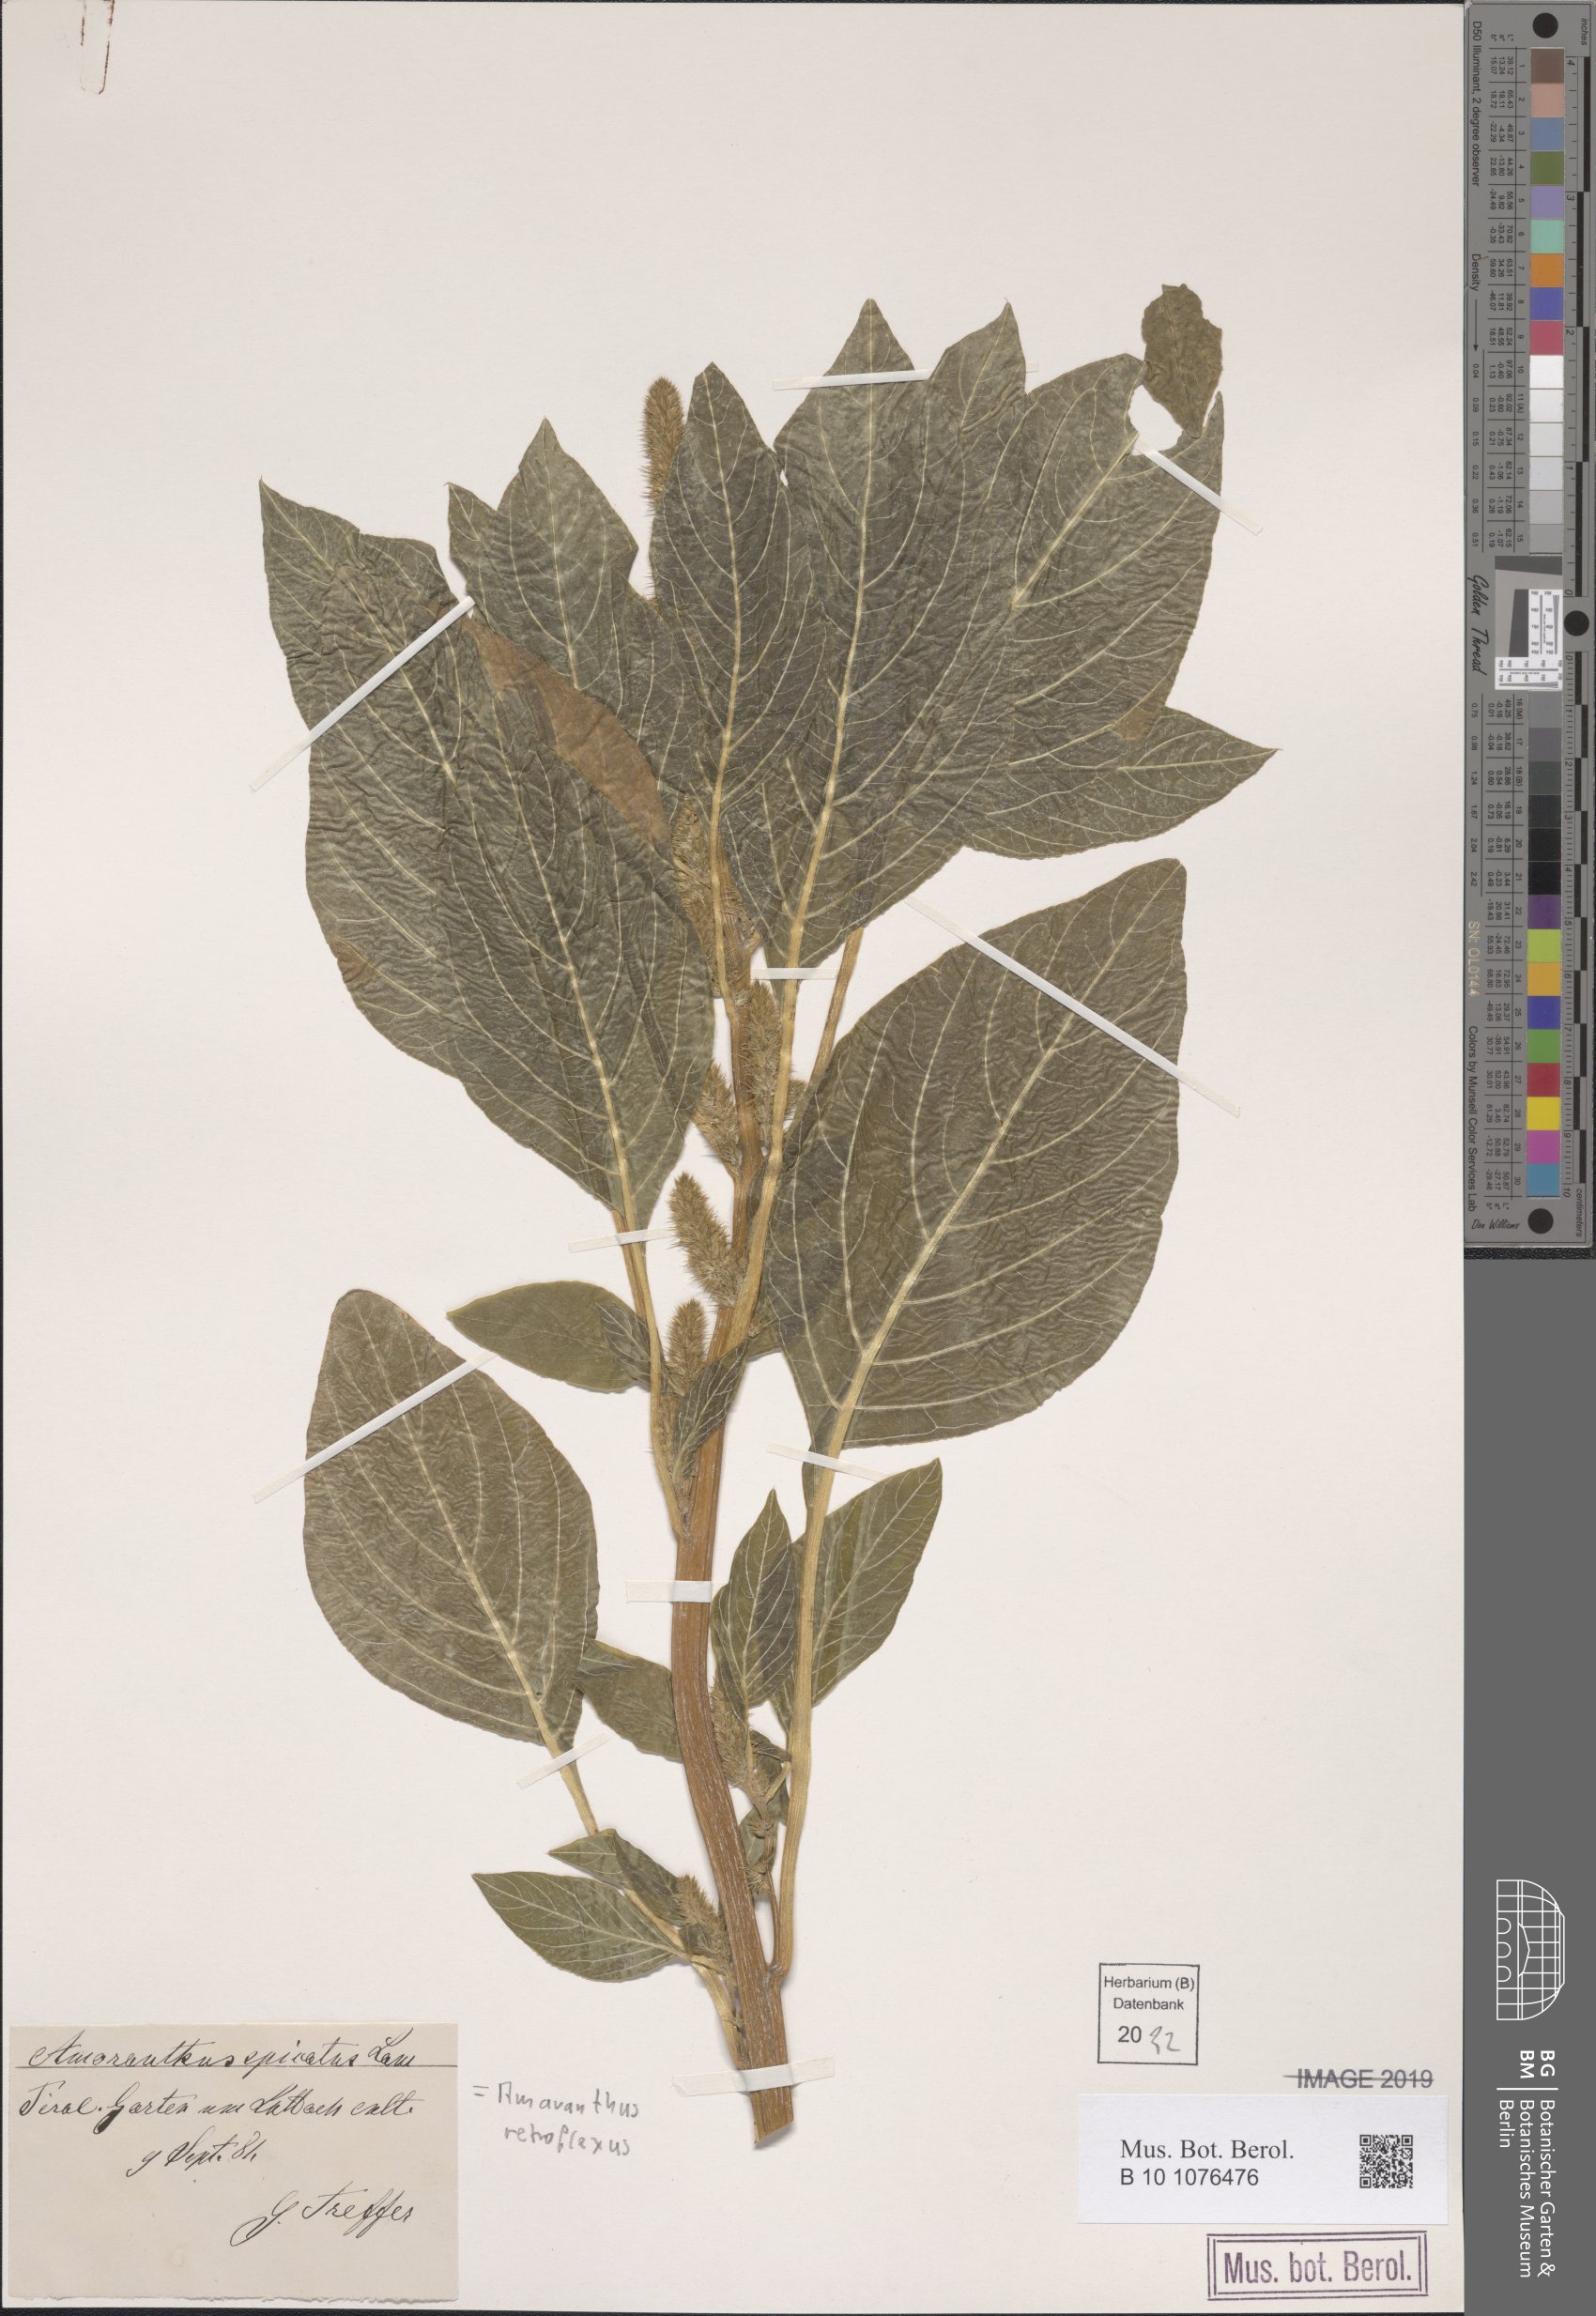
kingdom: Plantae
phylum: Tracheophyta
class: Magnoliopsida
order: Caryophyllales
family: Amaranthaceae
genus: Amaranthus
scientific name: Amaranthus retroflexus
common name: Redroot amaranth
